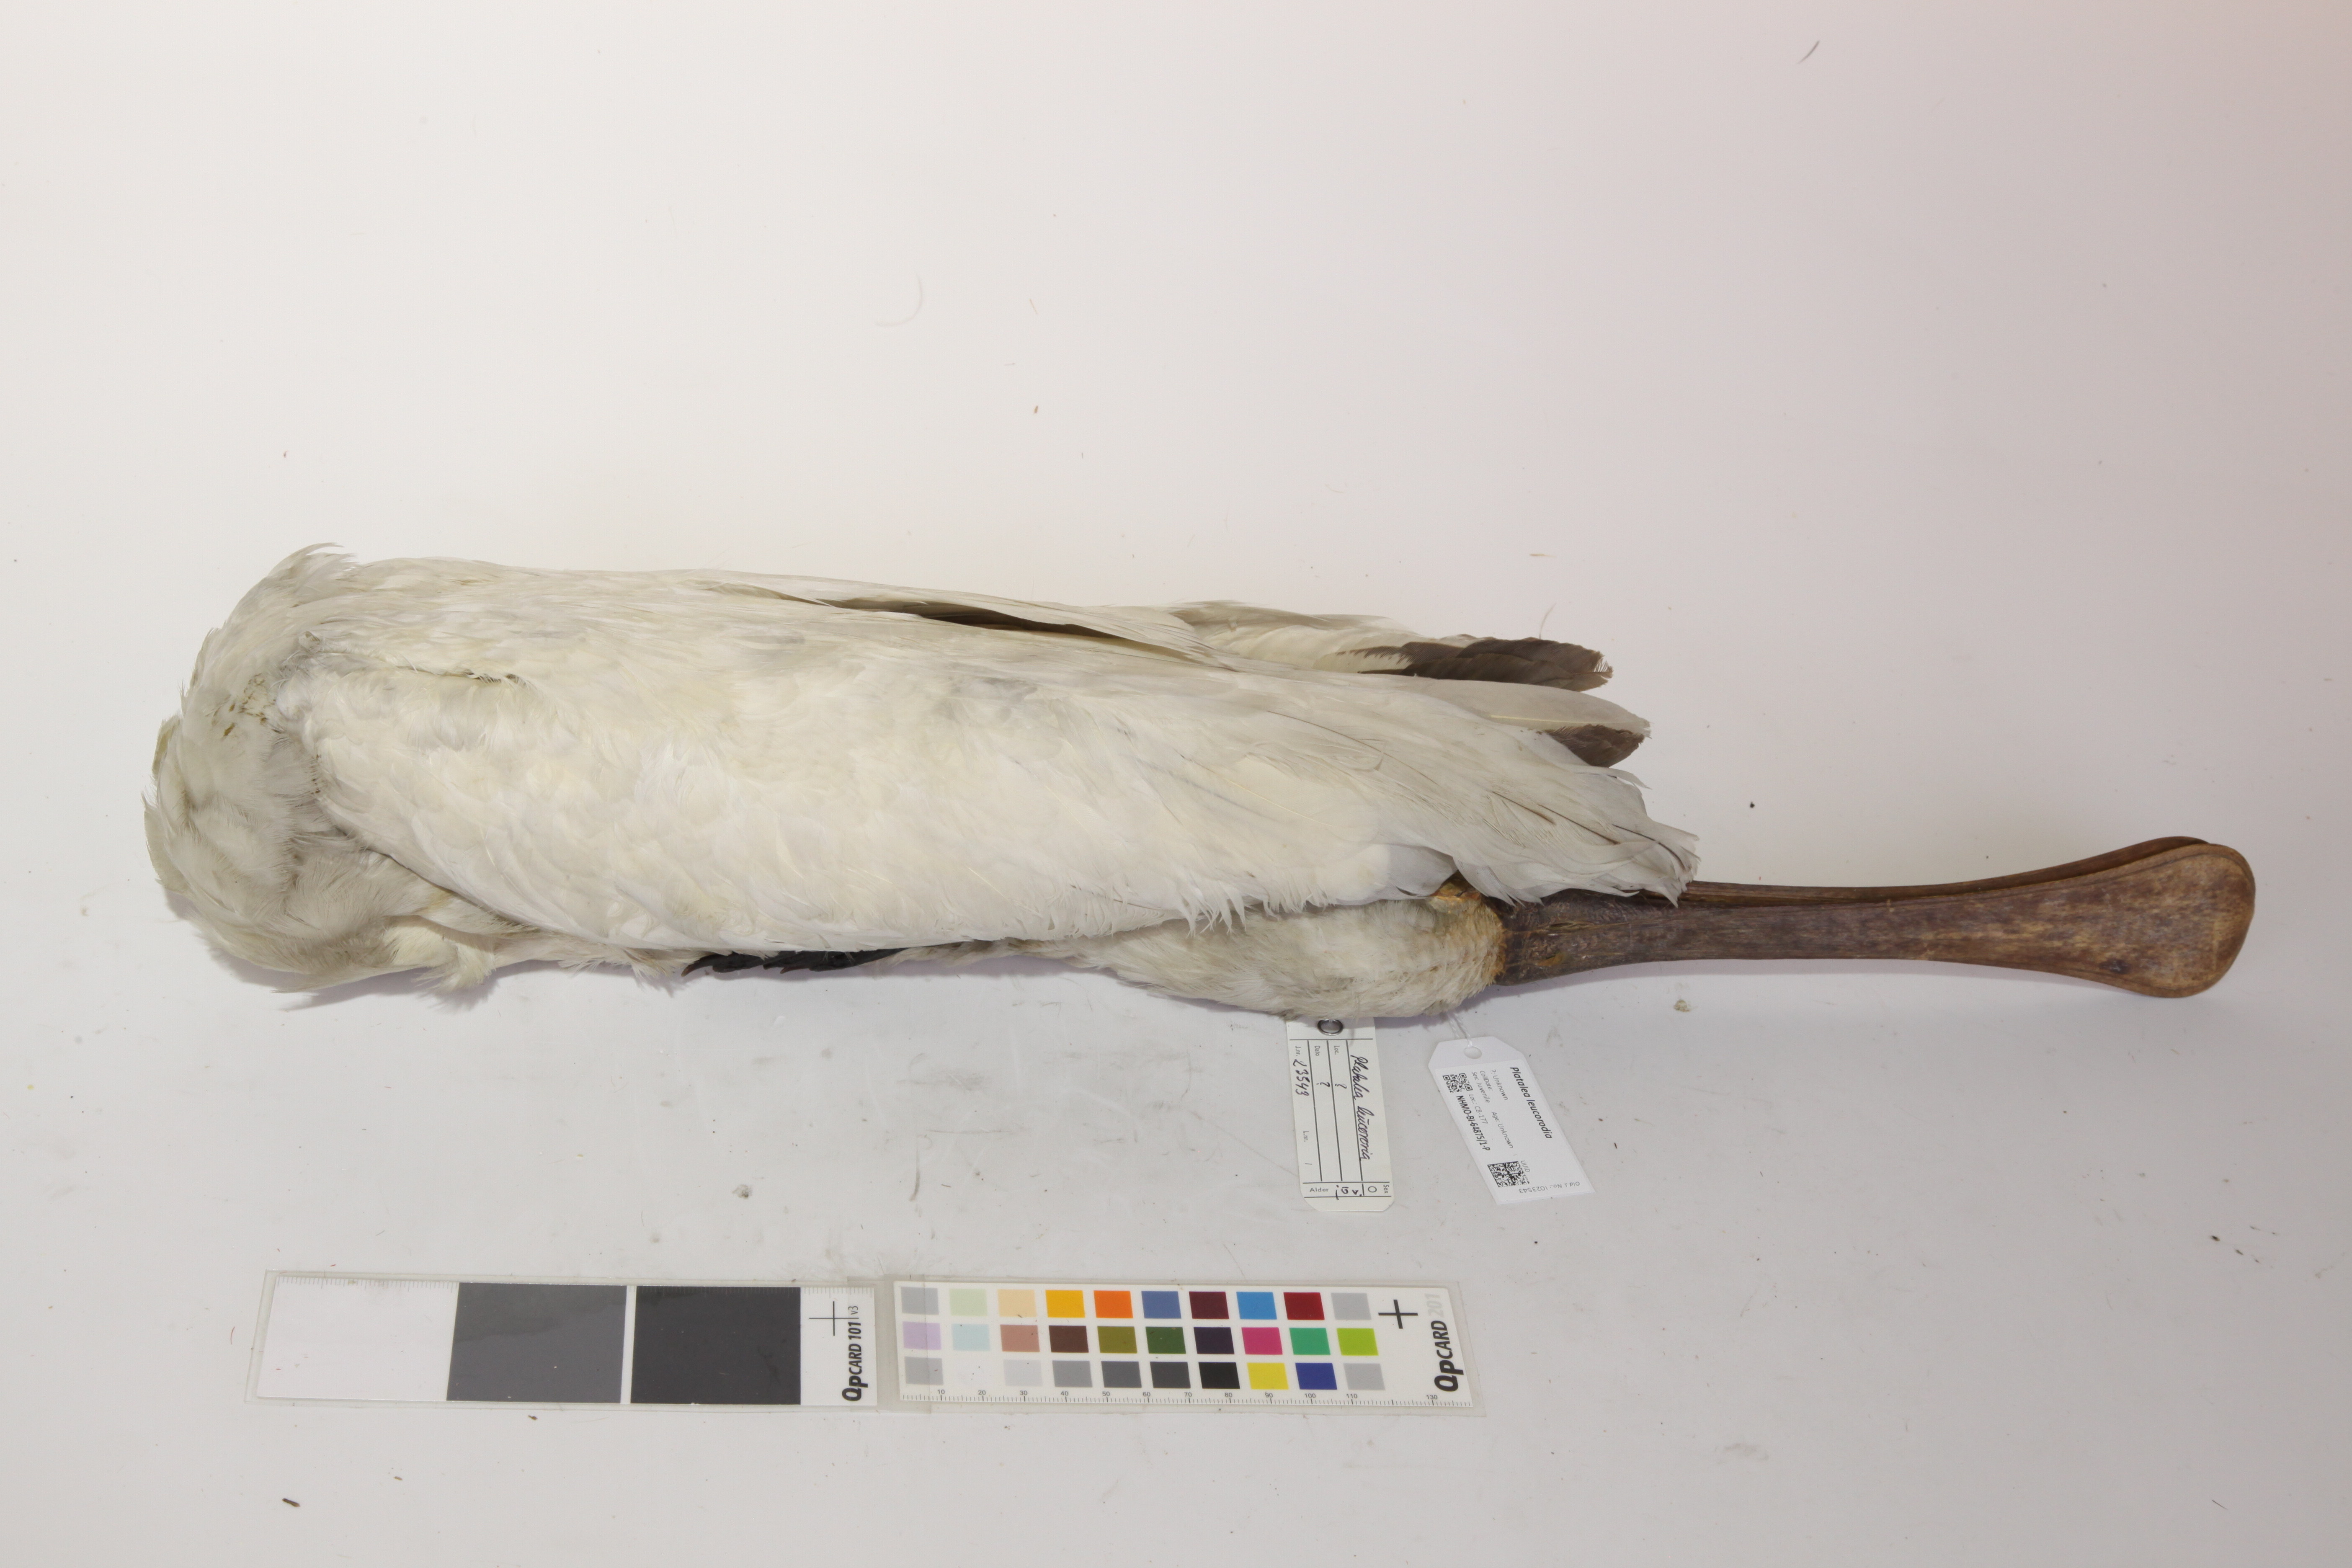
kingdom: Animalia
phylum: Chordata
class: Aves
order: Pelecaniformes
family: Threskiornithidae
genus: Platalea
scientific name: Platalea leucorodia
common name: Eurasian spoonbill
